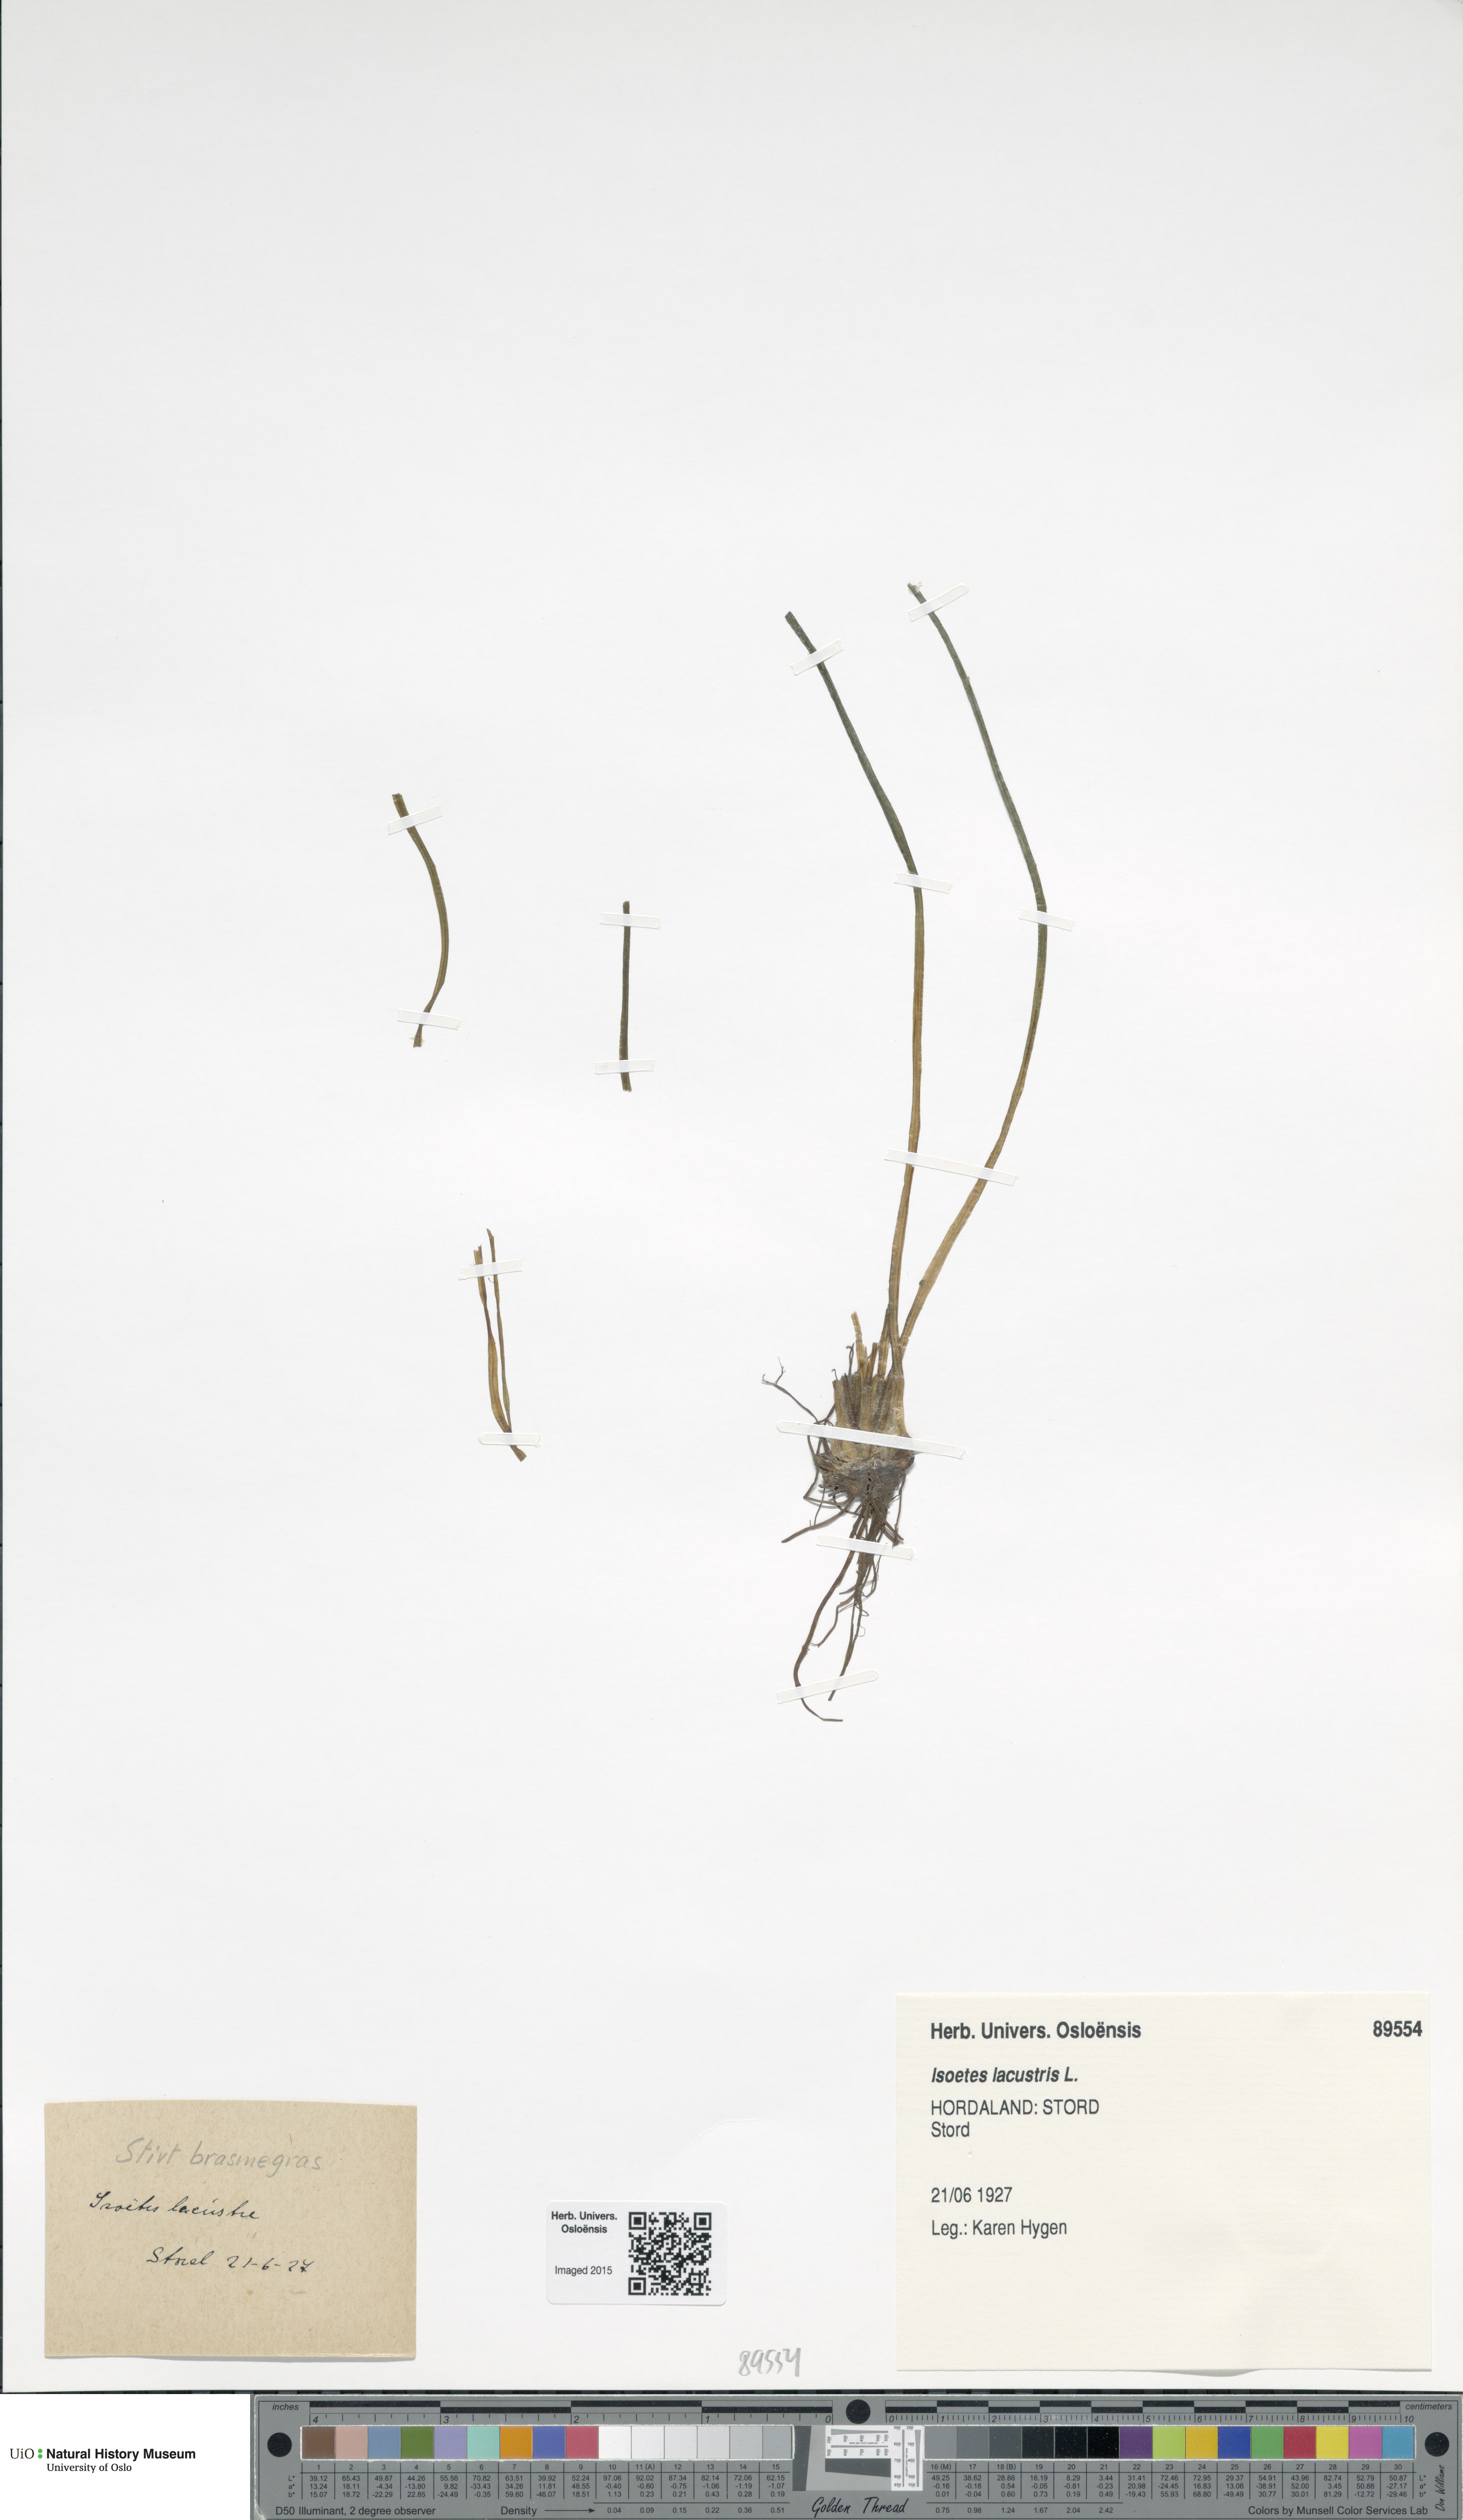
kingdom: Plantae
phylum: Tracheophyta
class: Lycopodiopsida
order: Isoetales
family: Isoetaceae
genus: Isoetes
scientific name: Isoetes lacustris
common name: Common quillwort
